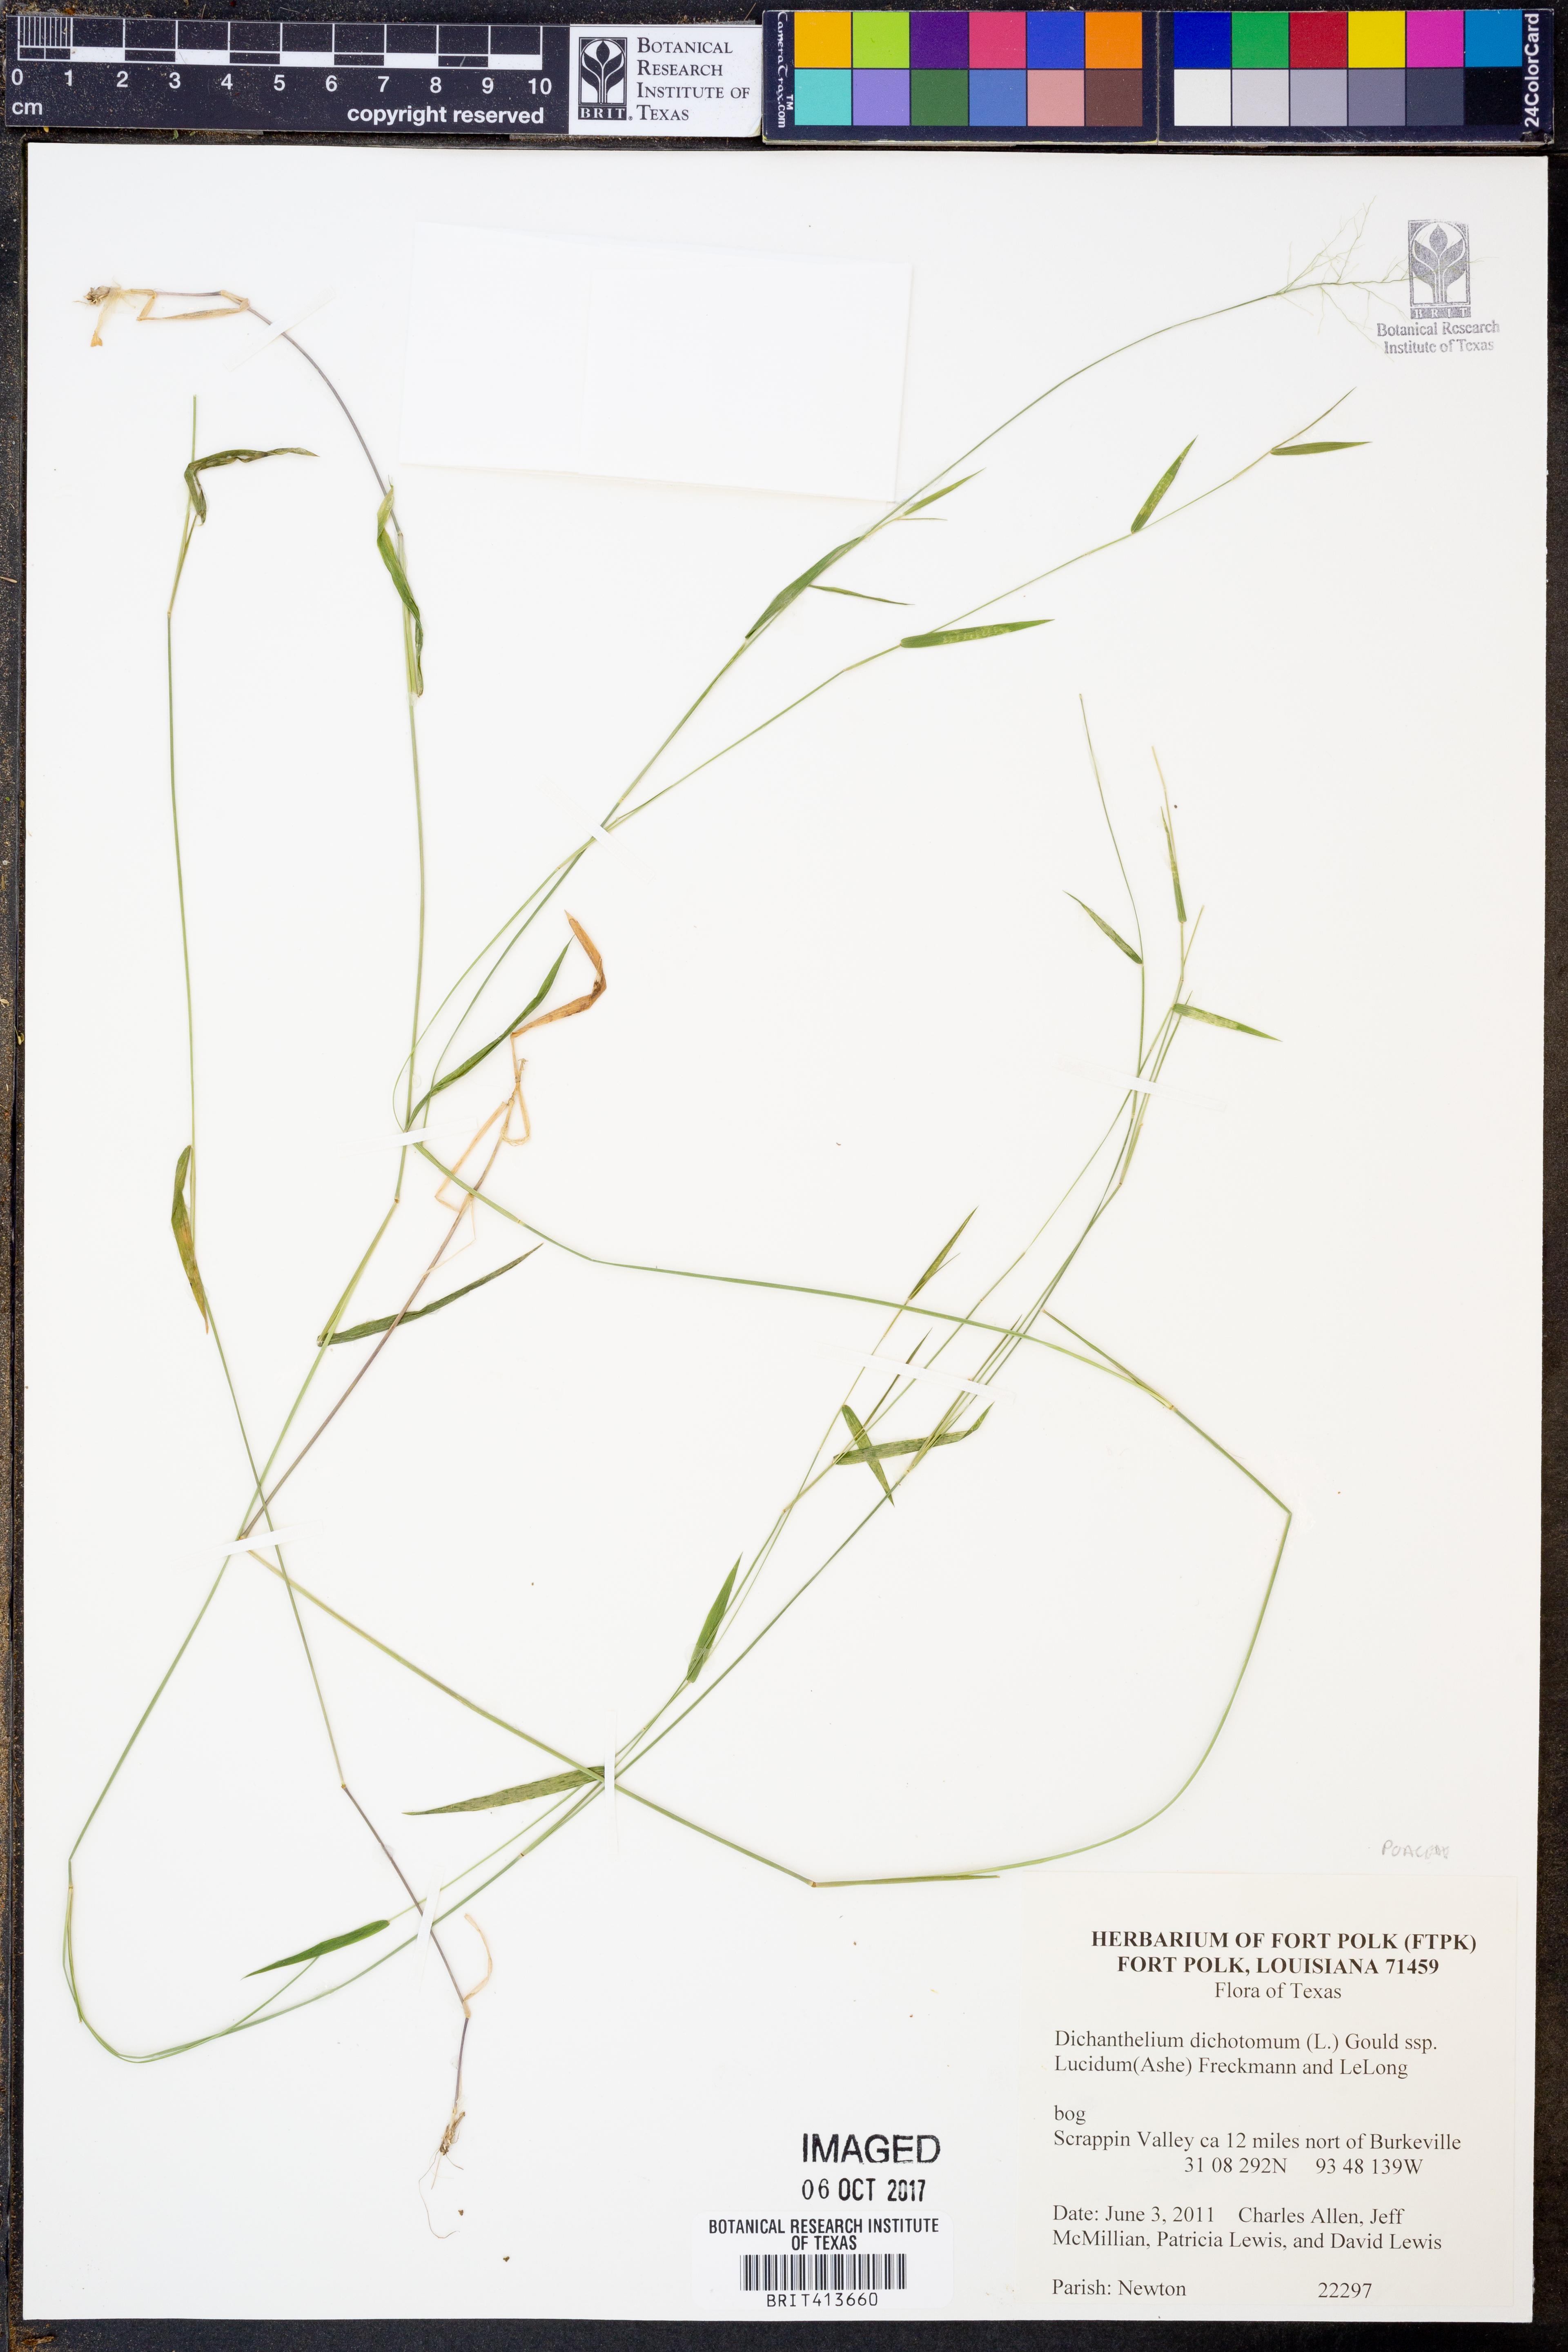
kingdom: Plantae
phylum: Tracheophyta
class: Liliopsida
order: Poales
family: Poaceae
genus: Dichanthelium
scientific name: Dichanthelium dichotomum
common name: Cypress panicgrass
